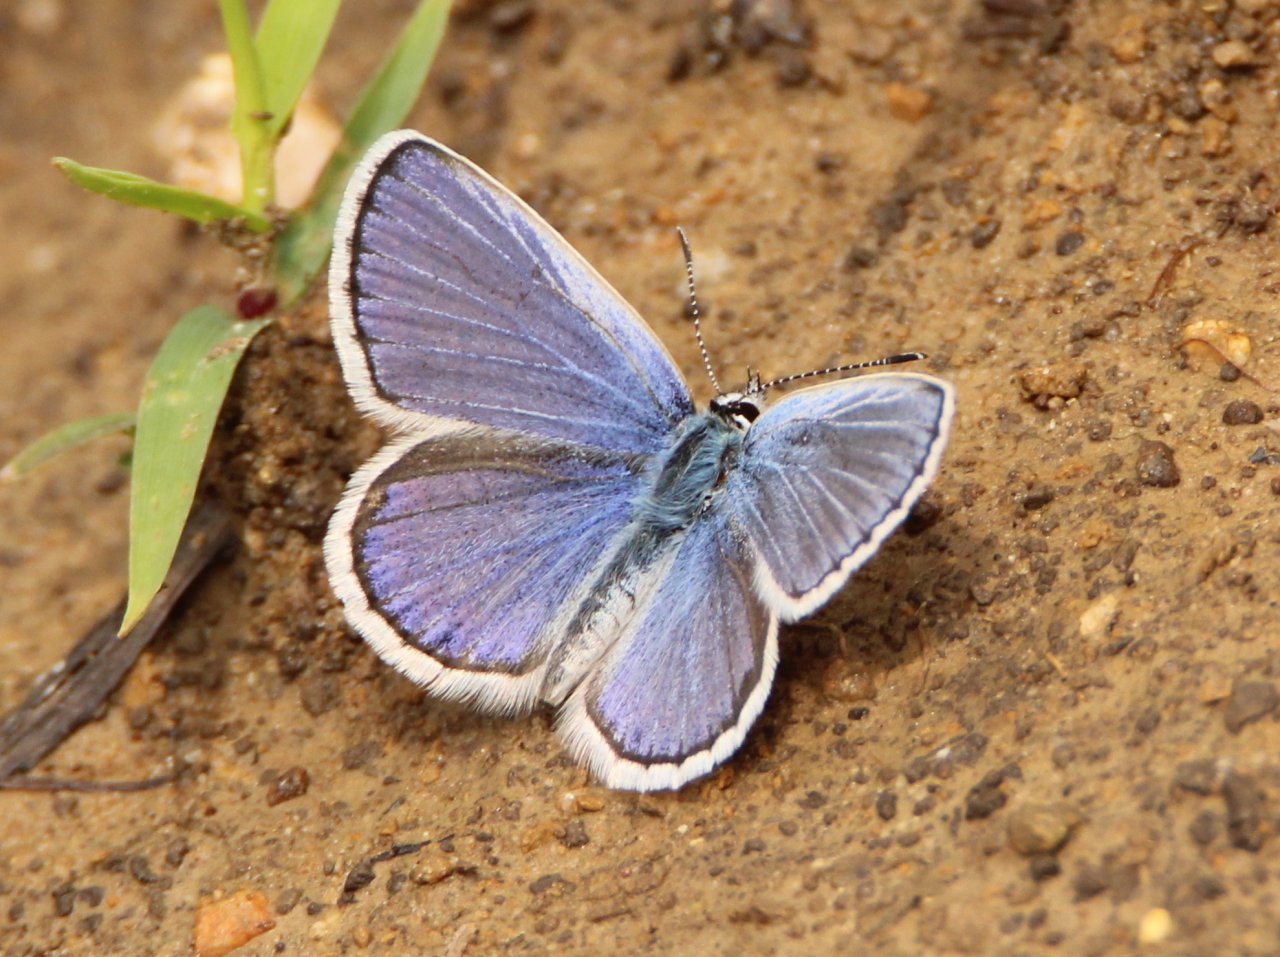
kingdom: Animalia
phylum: Arthropoda
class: Insecta
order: Lepidoptera
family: Lycaenidae
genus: Lycaeides
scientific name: Lycaeides melissa
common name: Melissa Blue
